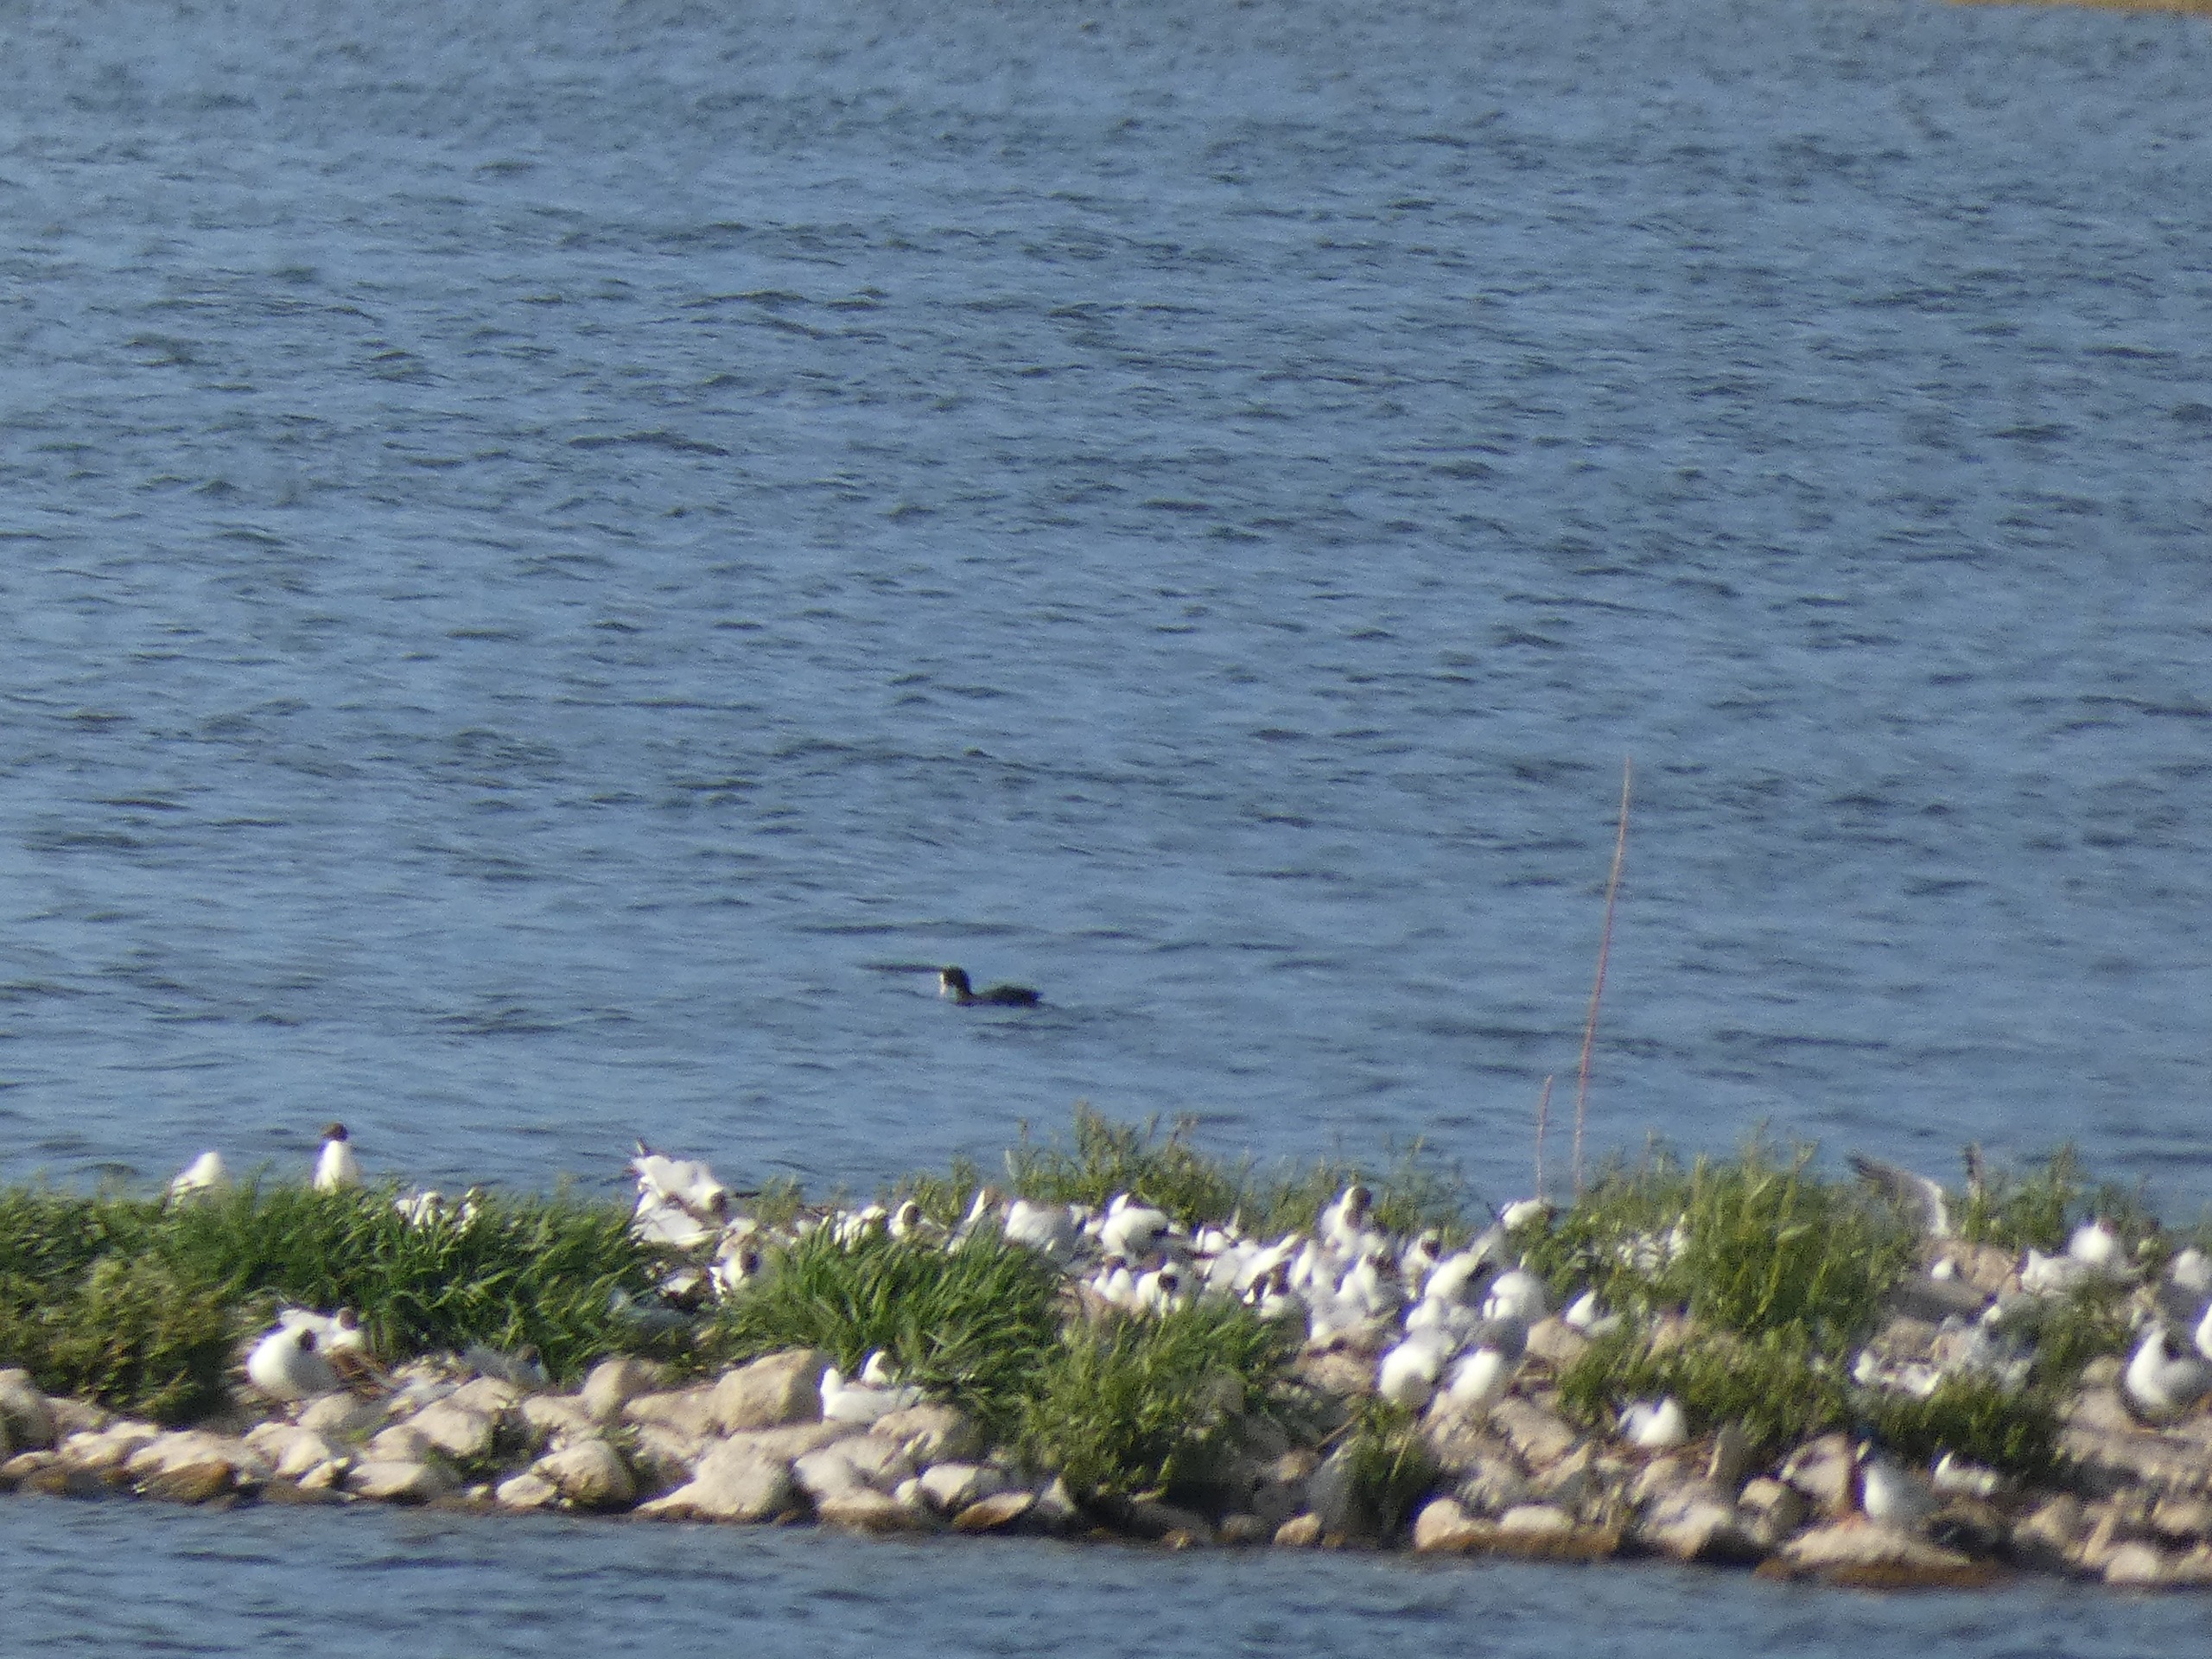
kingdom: Animalia
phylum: Chordata
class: Aves
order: Gruiformes
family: Rallidae
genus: Fulica
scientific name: Fulica atra
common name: Blishøne
